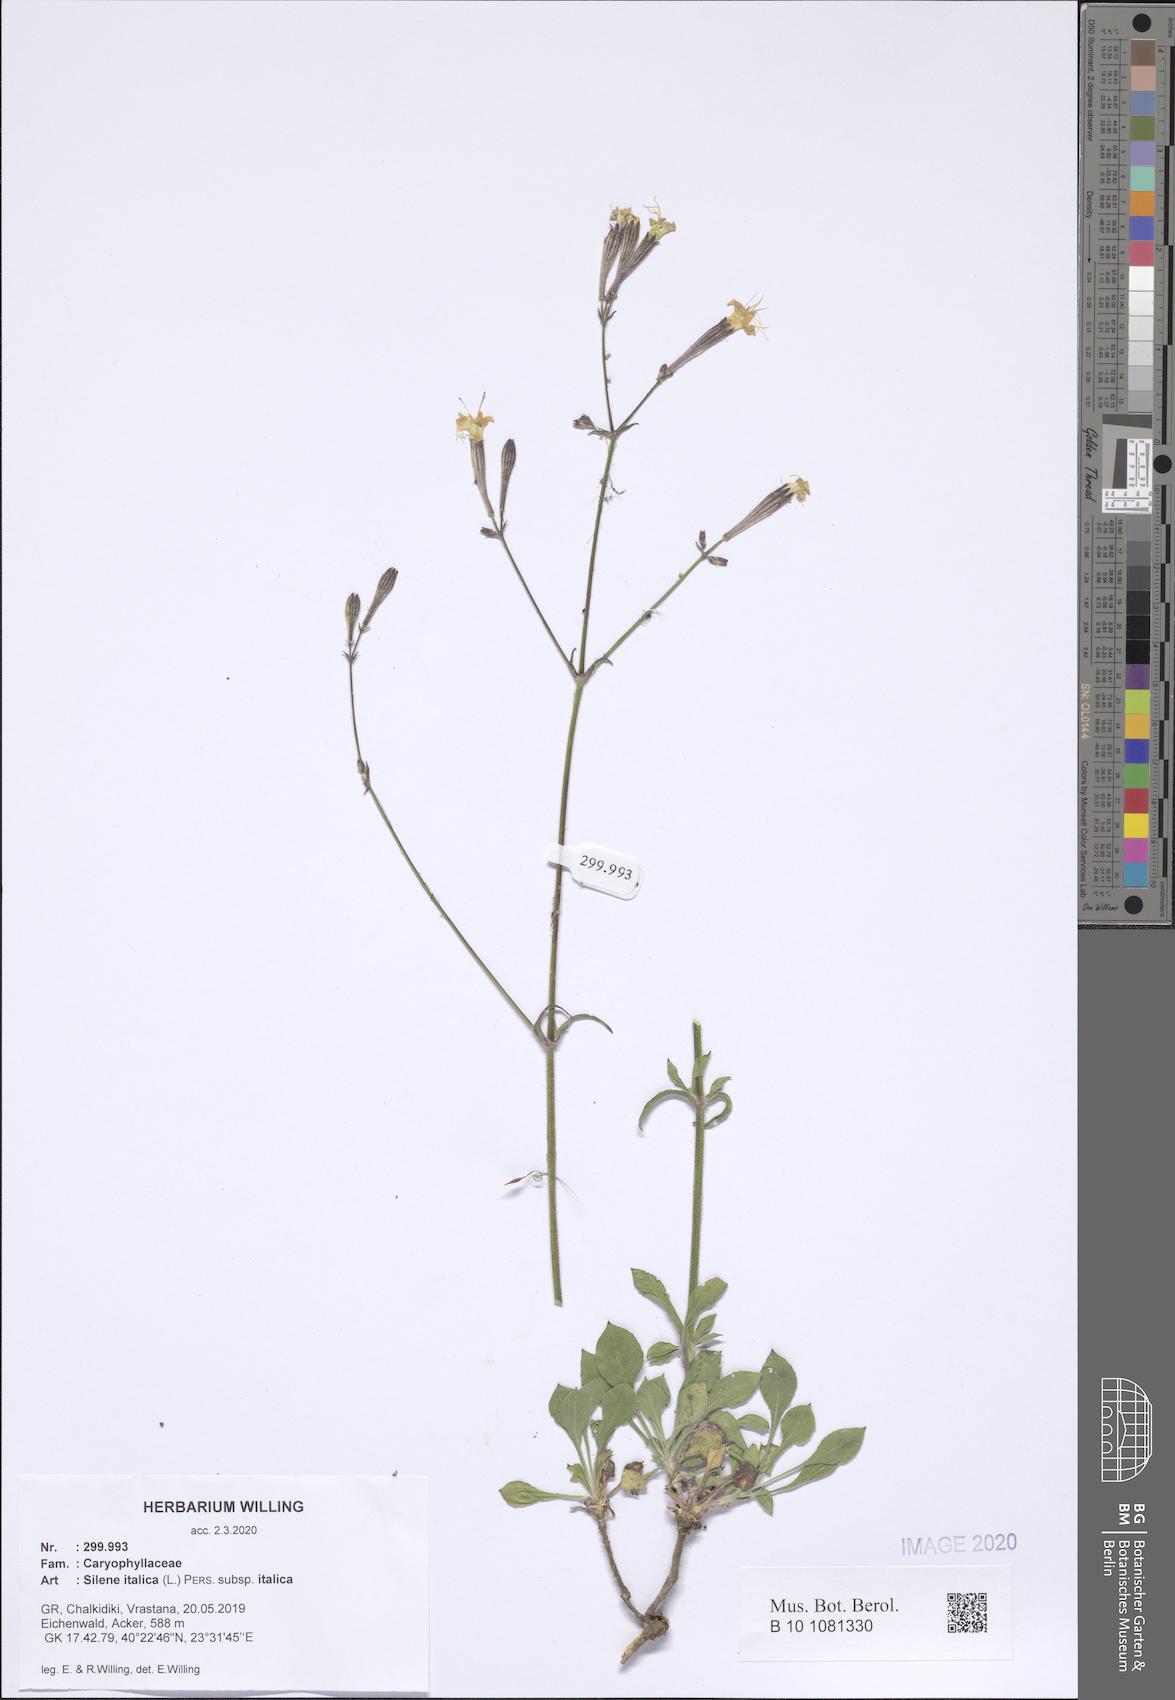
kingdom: Plantae
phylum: Tracheophyta
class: Magnoliopsida
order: Caryophyllales
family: Caryophyllaceae
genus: Silene
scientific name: Silene italica
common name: Italian catchfly
